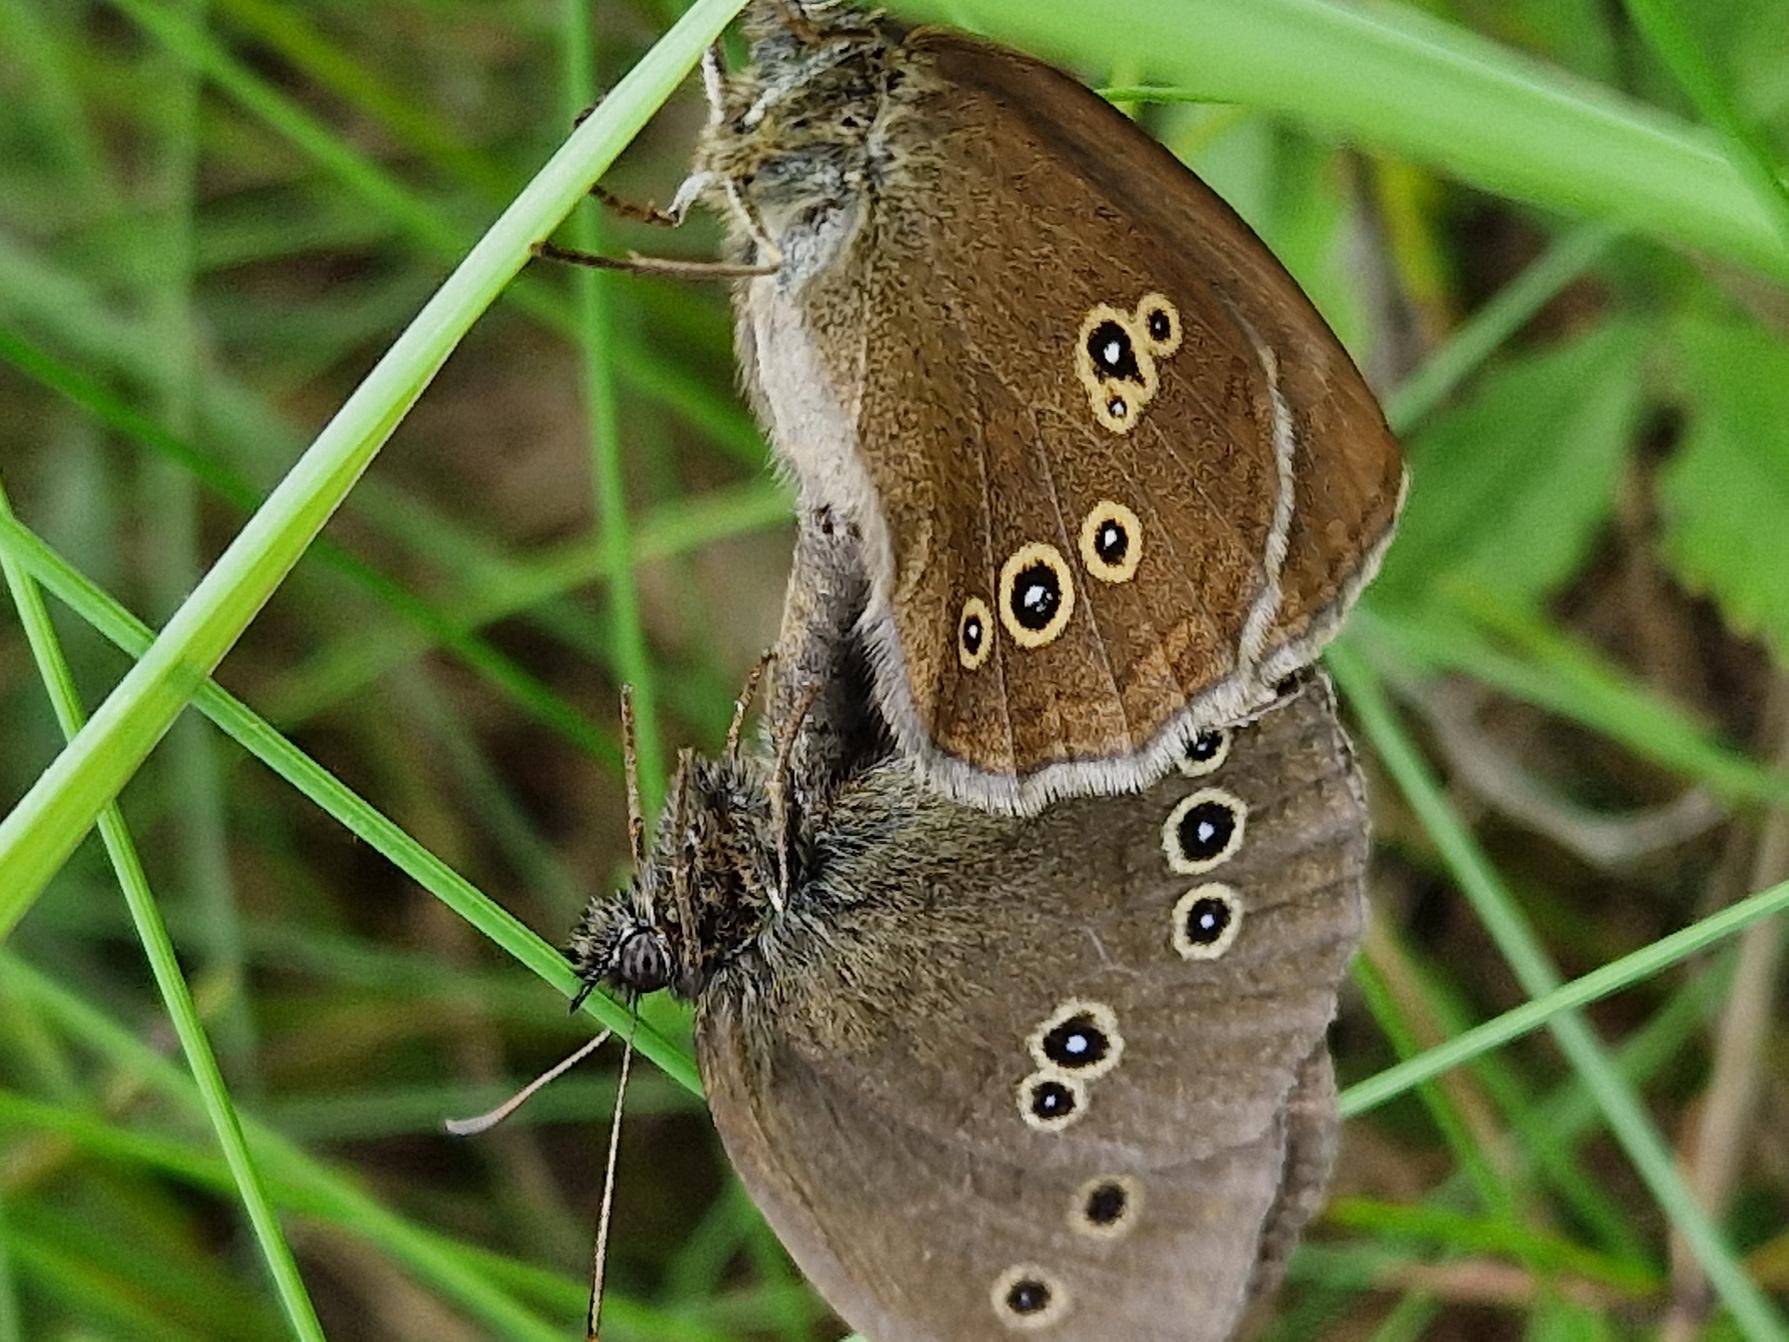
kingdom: Animalia
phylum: Arthropoda
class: Insecta
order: Lepidoptera
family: Nymphalidae
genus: Aphantopus
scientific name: Aphantopus hyperantus
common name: Engrandøje
